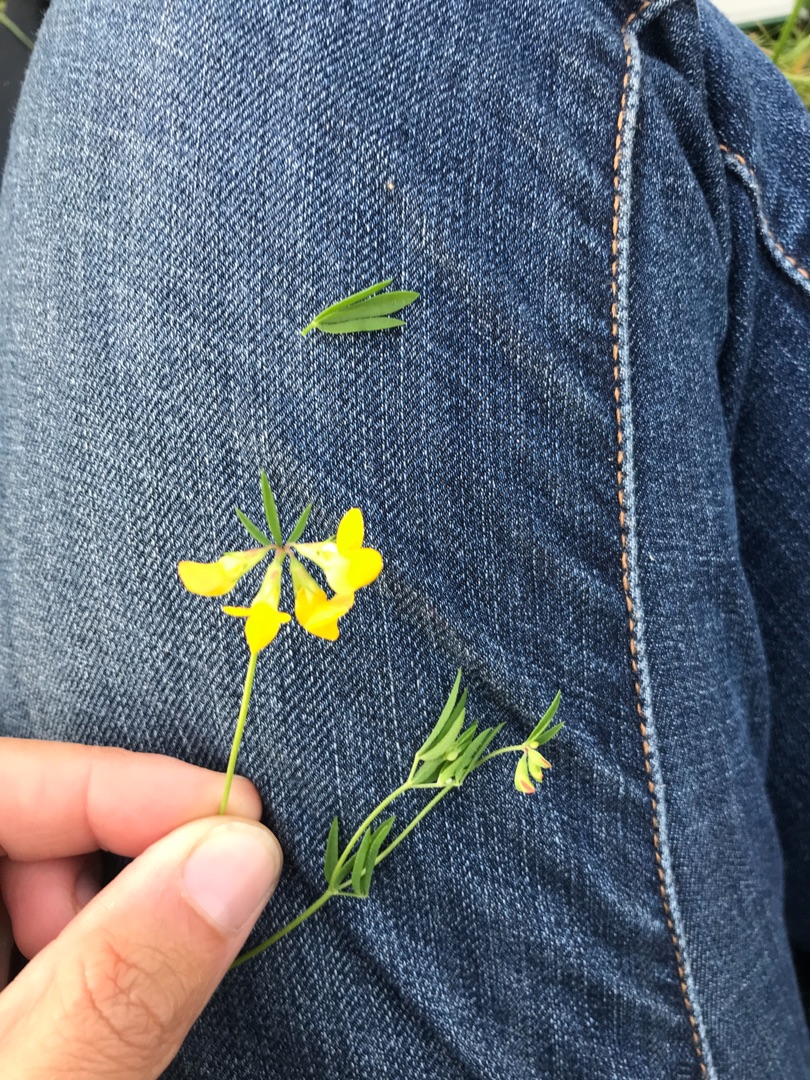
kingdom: Plantae
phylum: Tracheophyta
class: Magnoliopsida
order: Fabales
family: Fabaceae
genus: Lotus
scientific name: Lotus tenuis
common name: Smalbladet kællingetand
